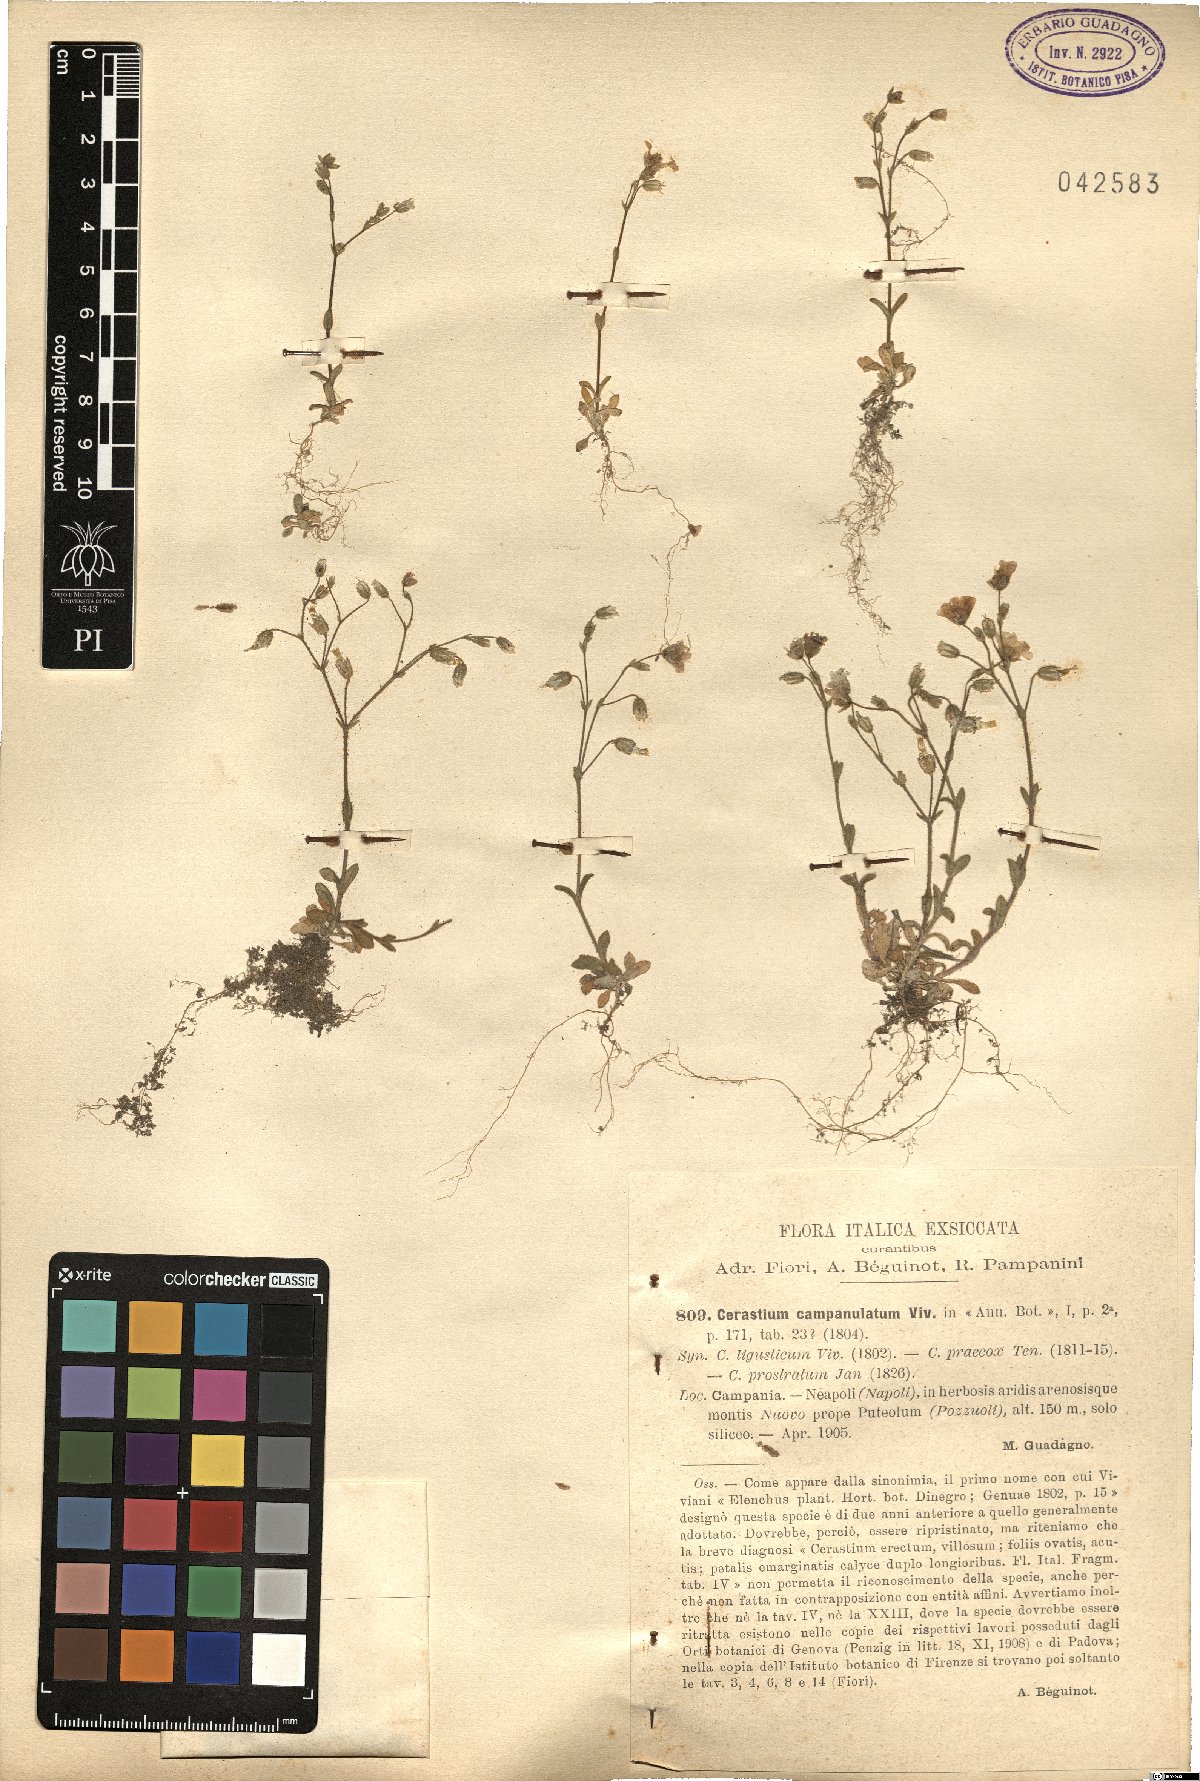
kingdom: Plantae
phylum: Tracheophyta
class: Magnoliopsida
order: Caryophyllales
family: Caryophyllaceae
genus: Cerastium
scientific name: Cerastium ligusticum
